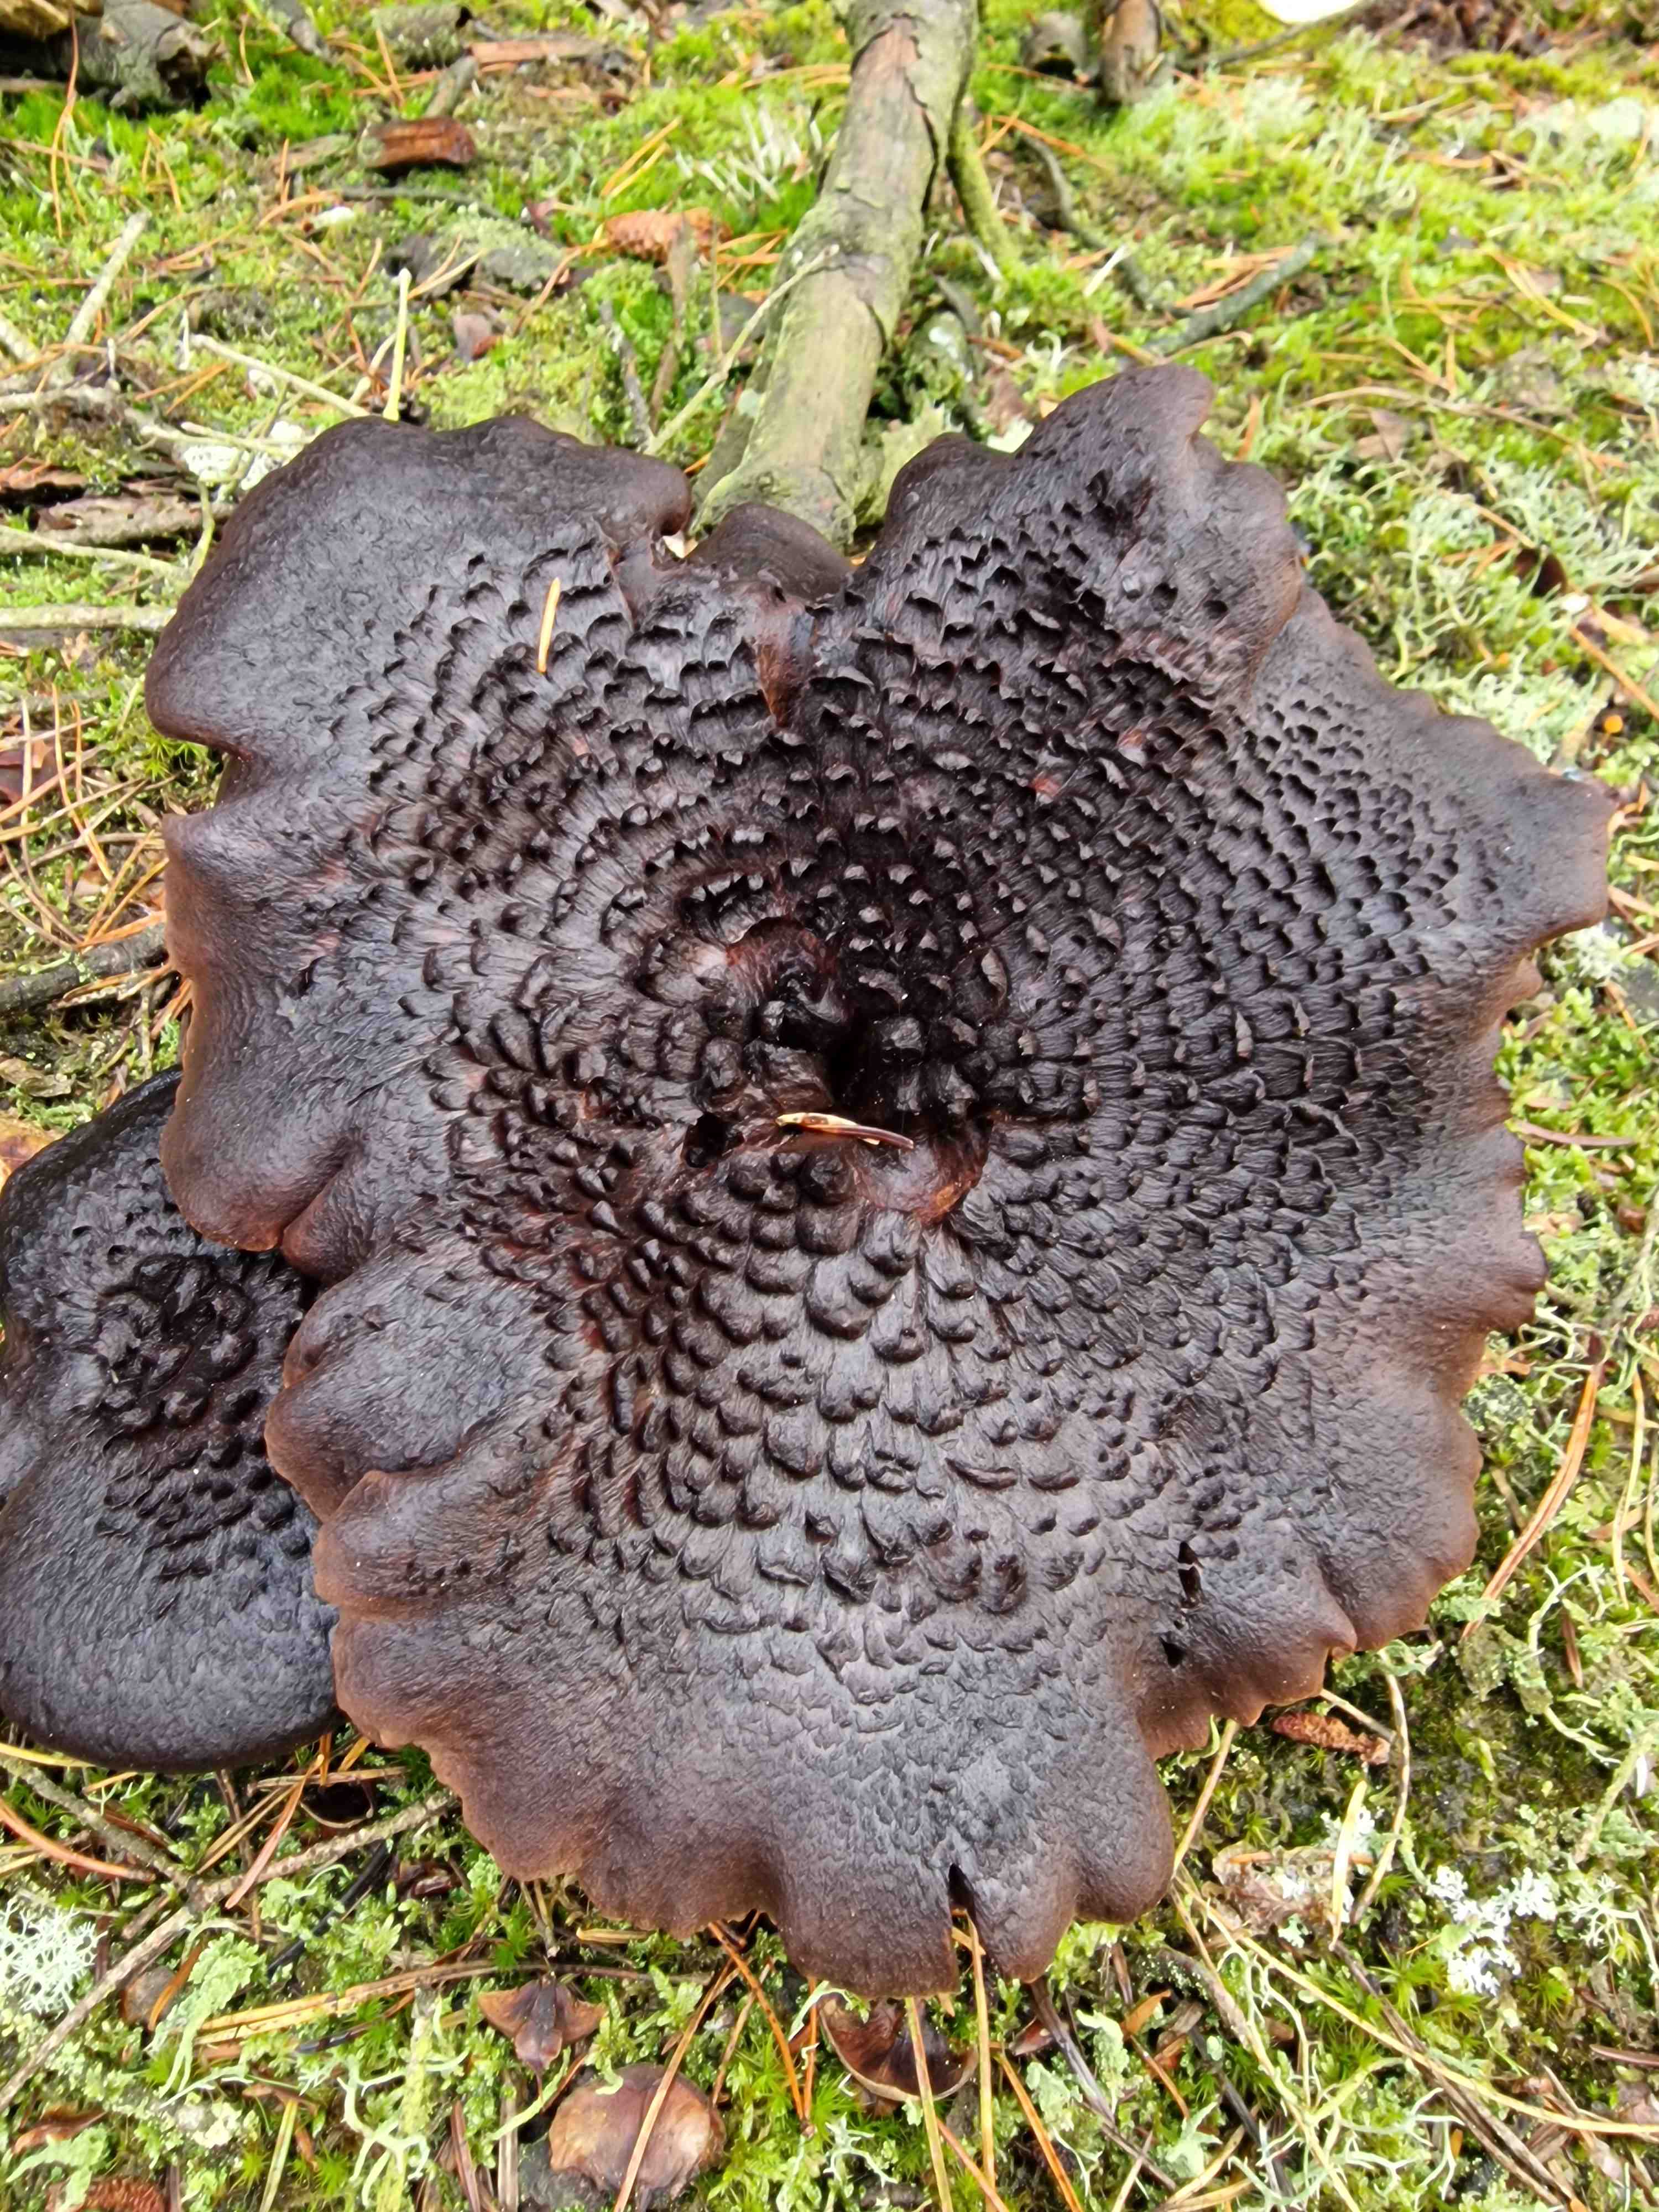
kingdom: Fungi
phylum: Basidiomycota
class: Agaricomycetes
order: Thelephorales
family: Bankeraceae
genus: Sarcodon
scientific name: Sarcodon squamosus
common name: småskællet kødpigsvamp
